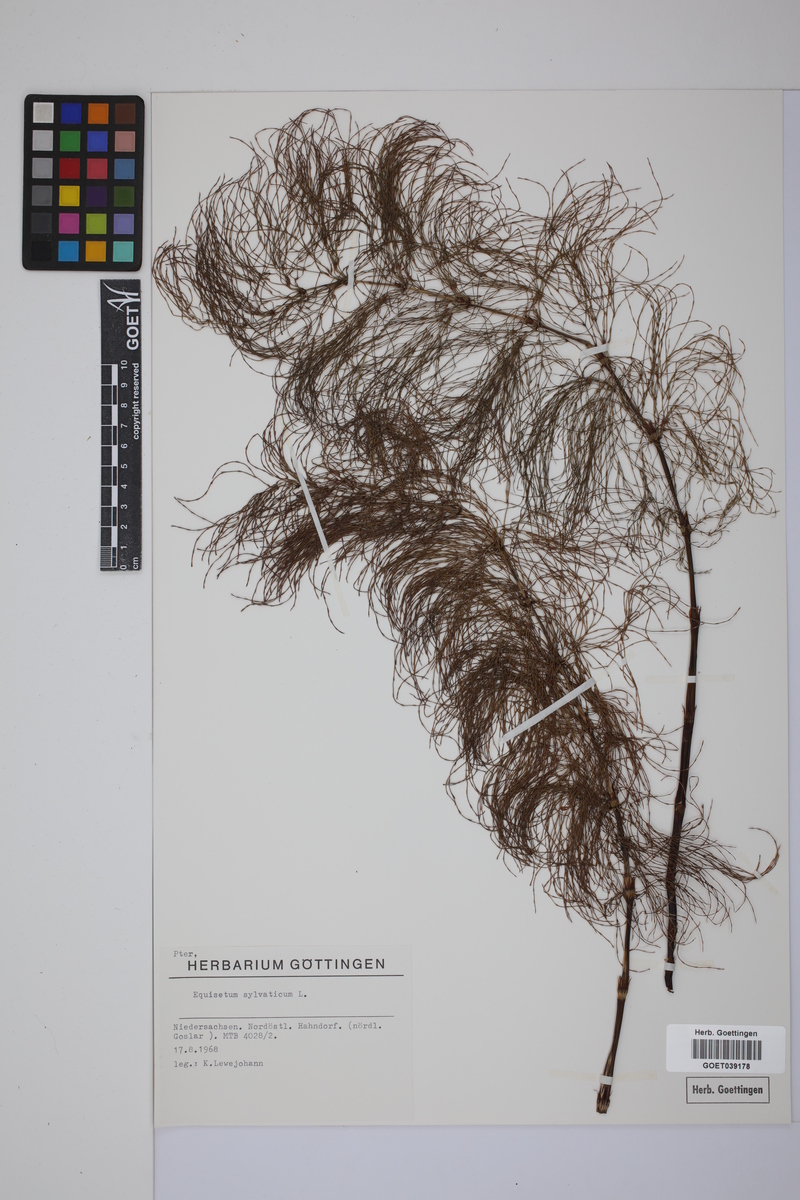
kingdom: Plantae
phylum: Tracheophyta
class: Polypodiopsida
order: Equisetales
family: Equisetaceae
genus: Equisetum
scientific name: Equisetum sylvaticum
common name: Wood horsetail
